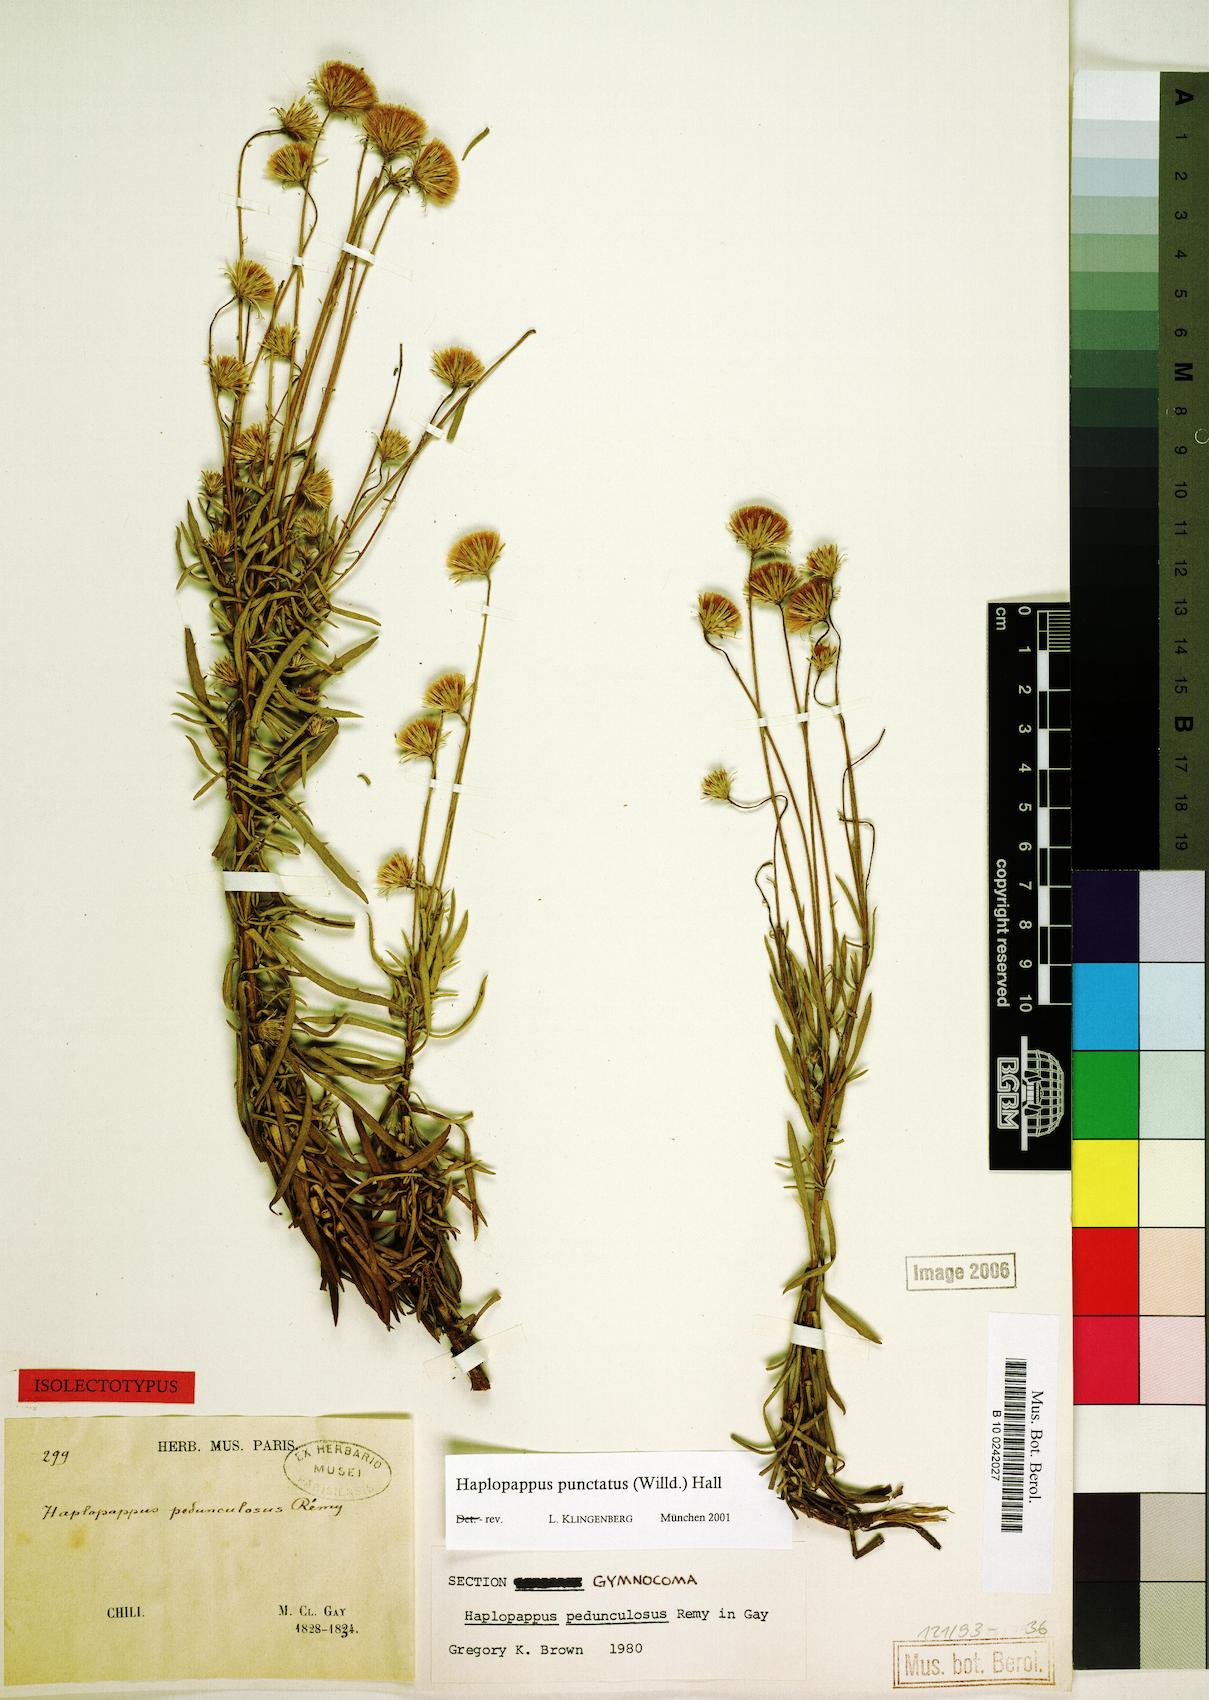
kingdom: Plantae
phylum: Tracheophyta
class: Magnoliopsida
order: Asterales
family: Asteraceae
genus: Haplopappus
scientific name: Haplopappus punctatus
